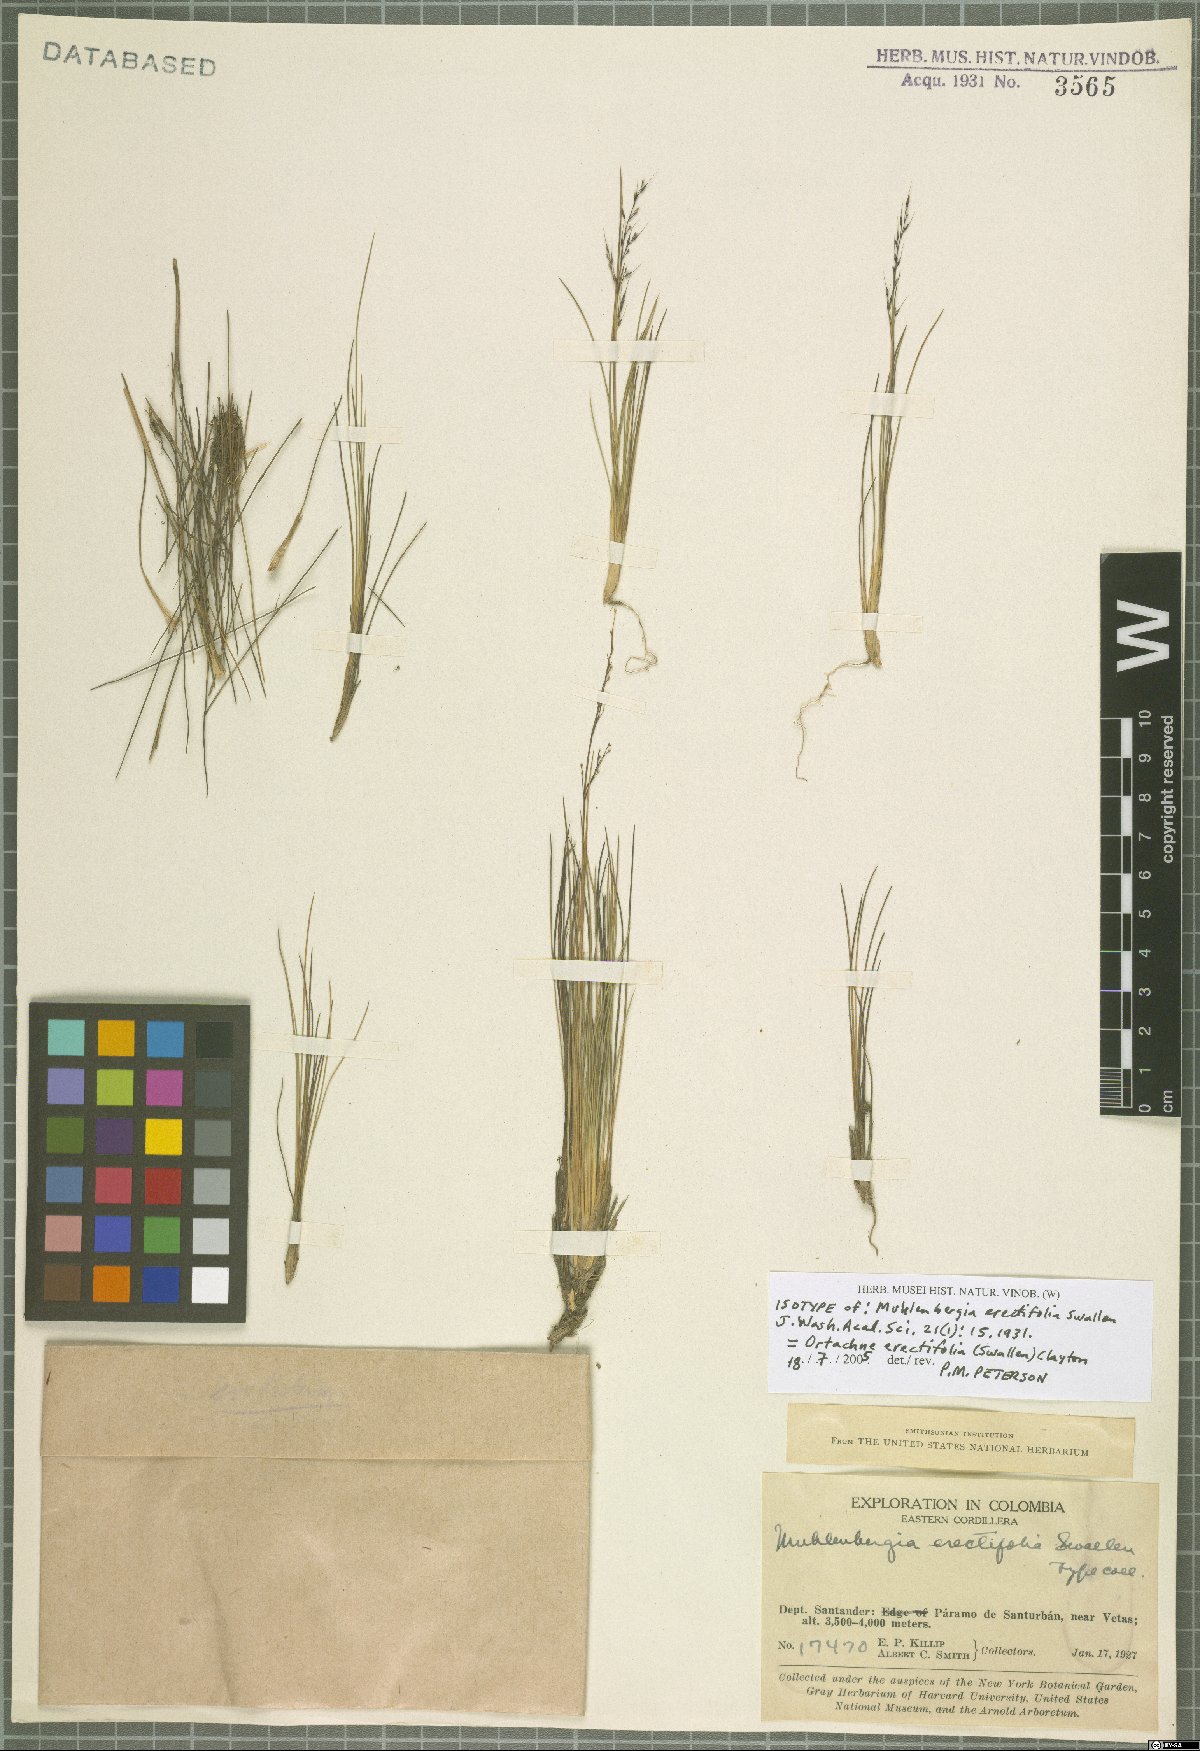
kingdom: Plantae
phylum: Tracheophyta
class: Liliopsida
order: Poales
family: Poaceae
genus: Lorenzochloa
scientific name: Lorenzochloa erectifolia
